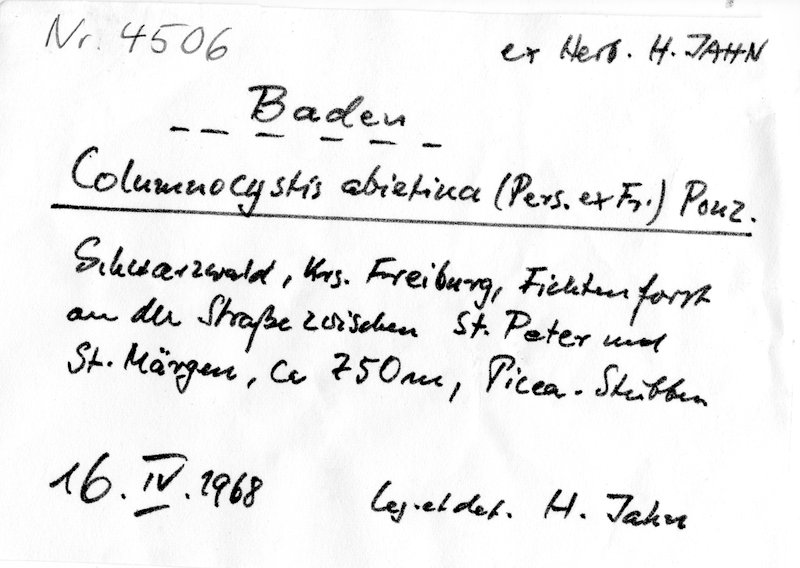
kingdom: Fungi
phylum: Basidiomycota
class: Agaricomycetes
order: Gloeophyllales
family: Gloeophyllaceae
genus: Veluticeps
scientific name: Veluticeps abietina
